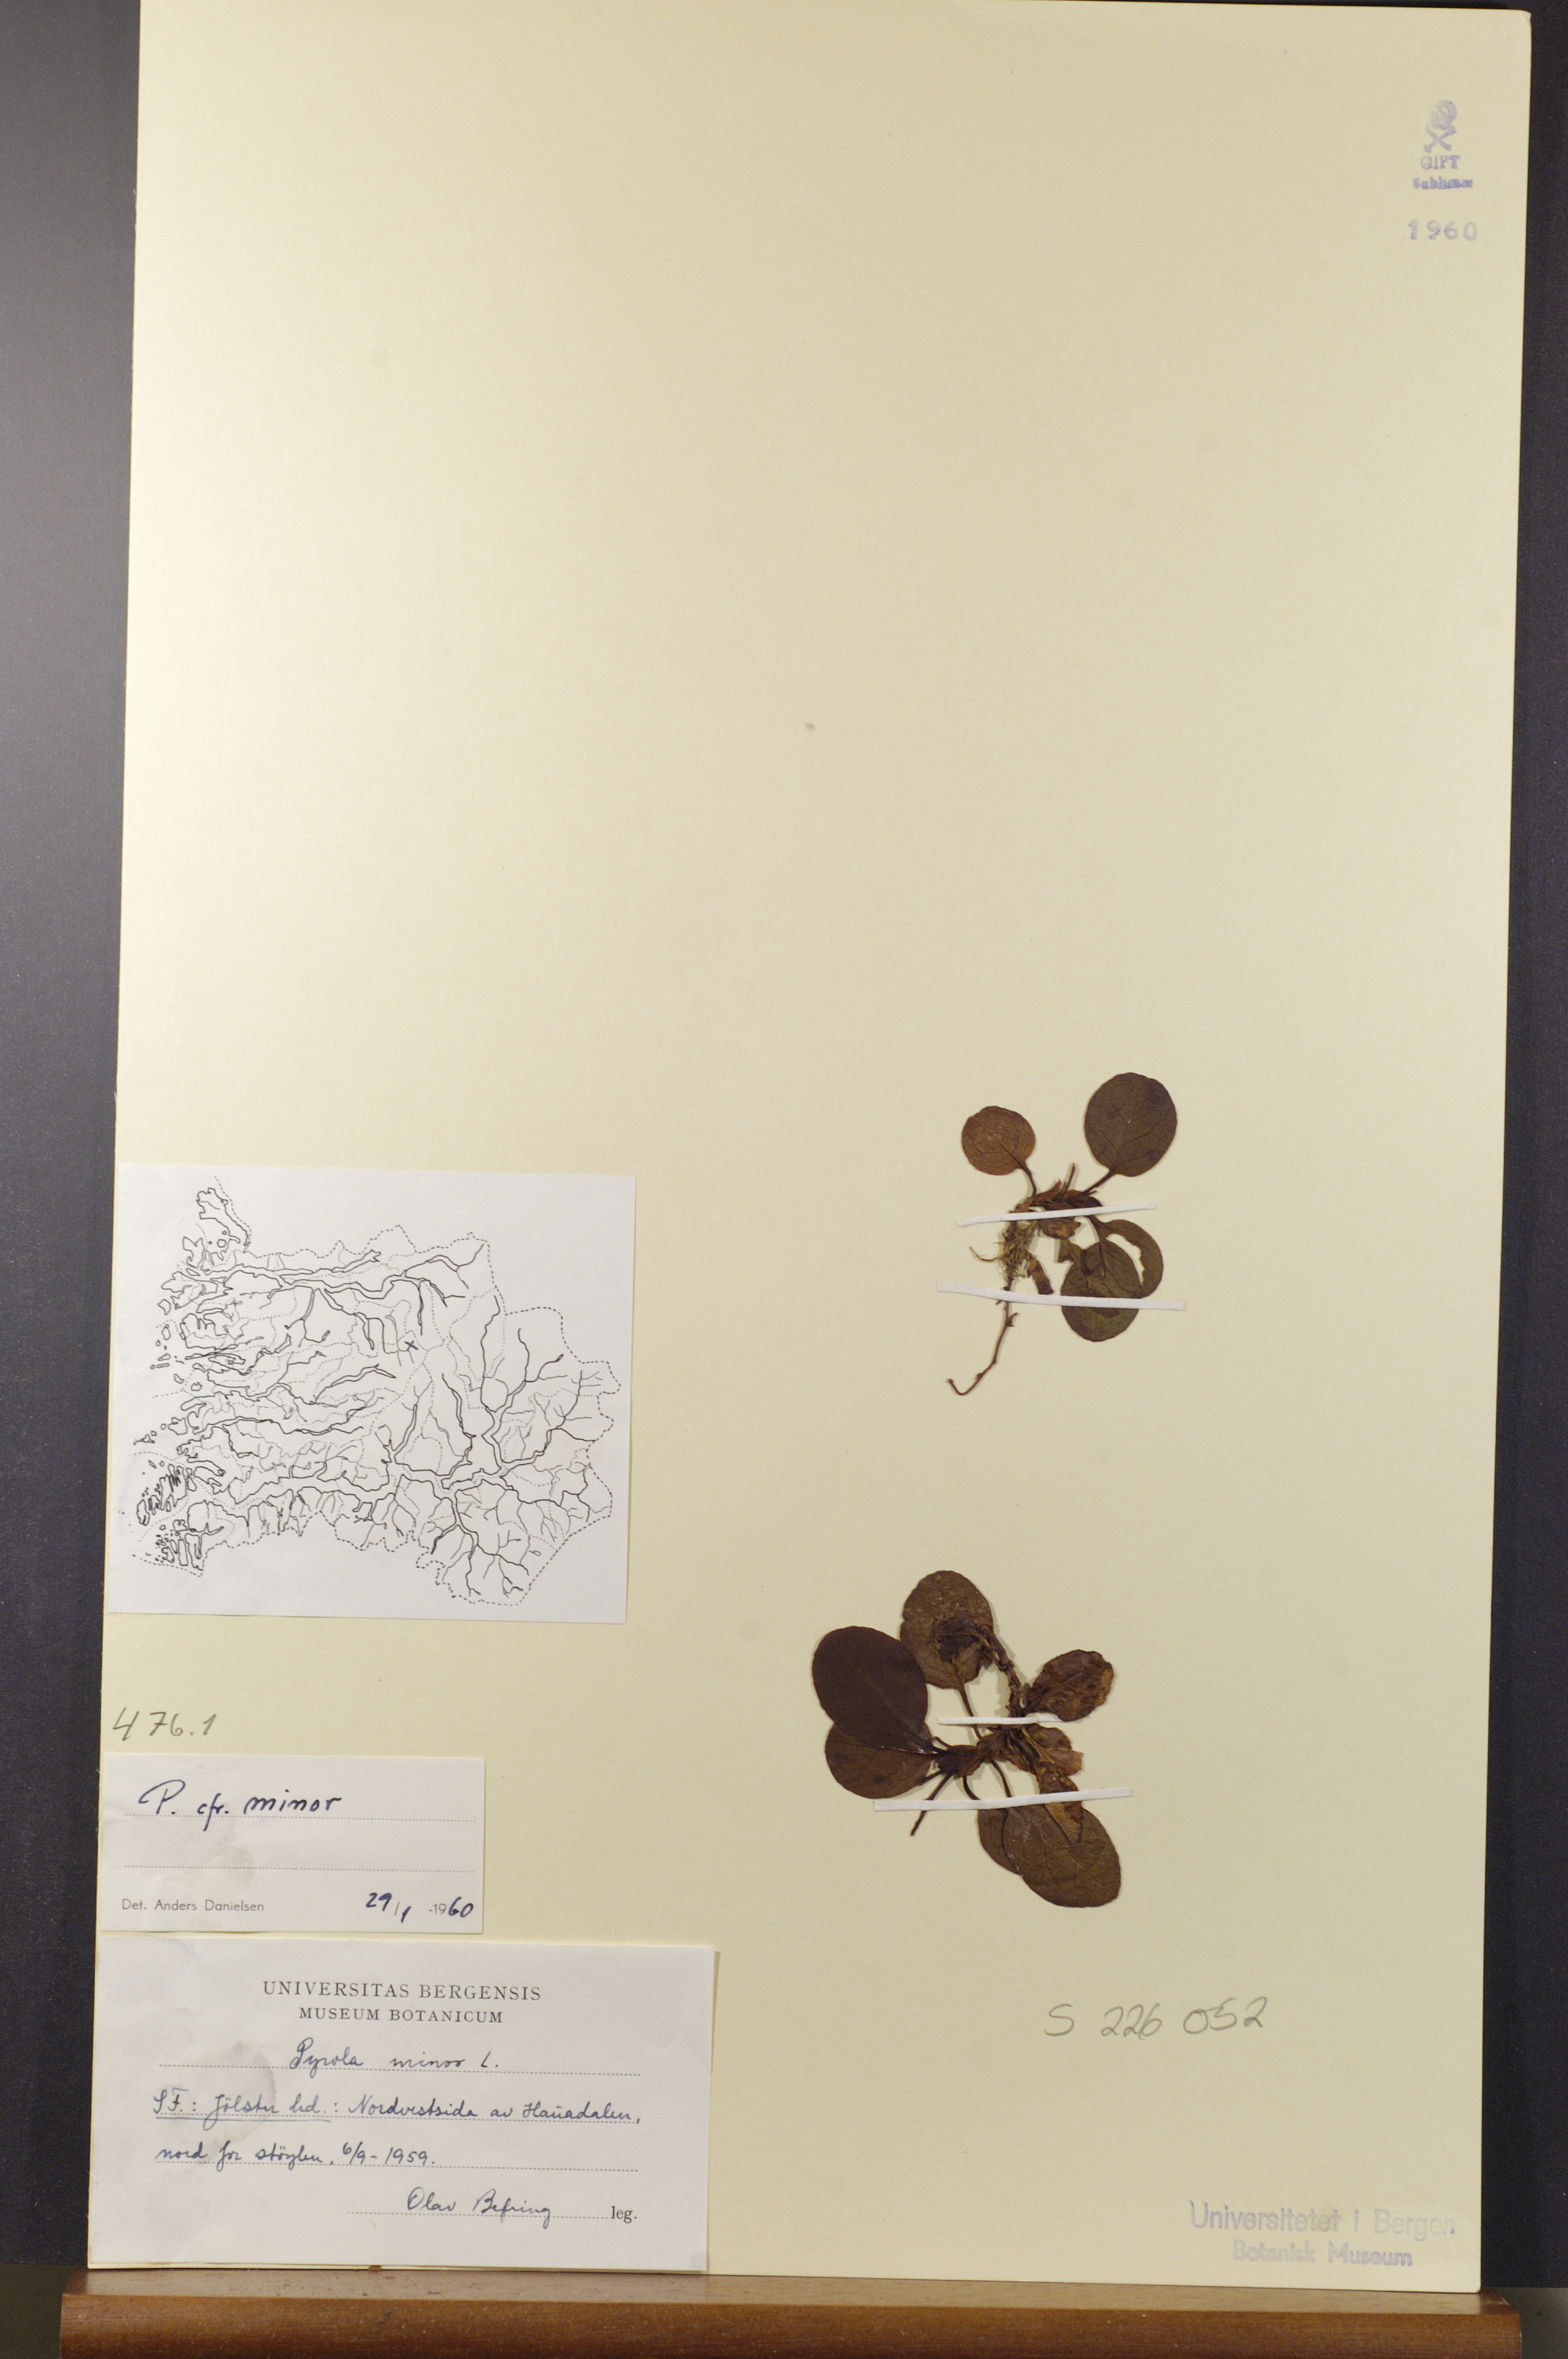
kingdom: Plantae
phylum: Tracheophyta
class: Magnoliopsida
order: Ericales
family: Ericaceae
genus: Pyrola
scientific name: Pyrola minor
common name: Common wintergreen
